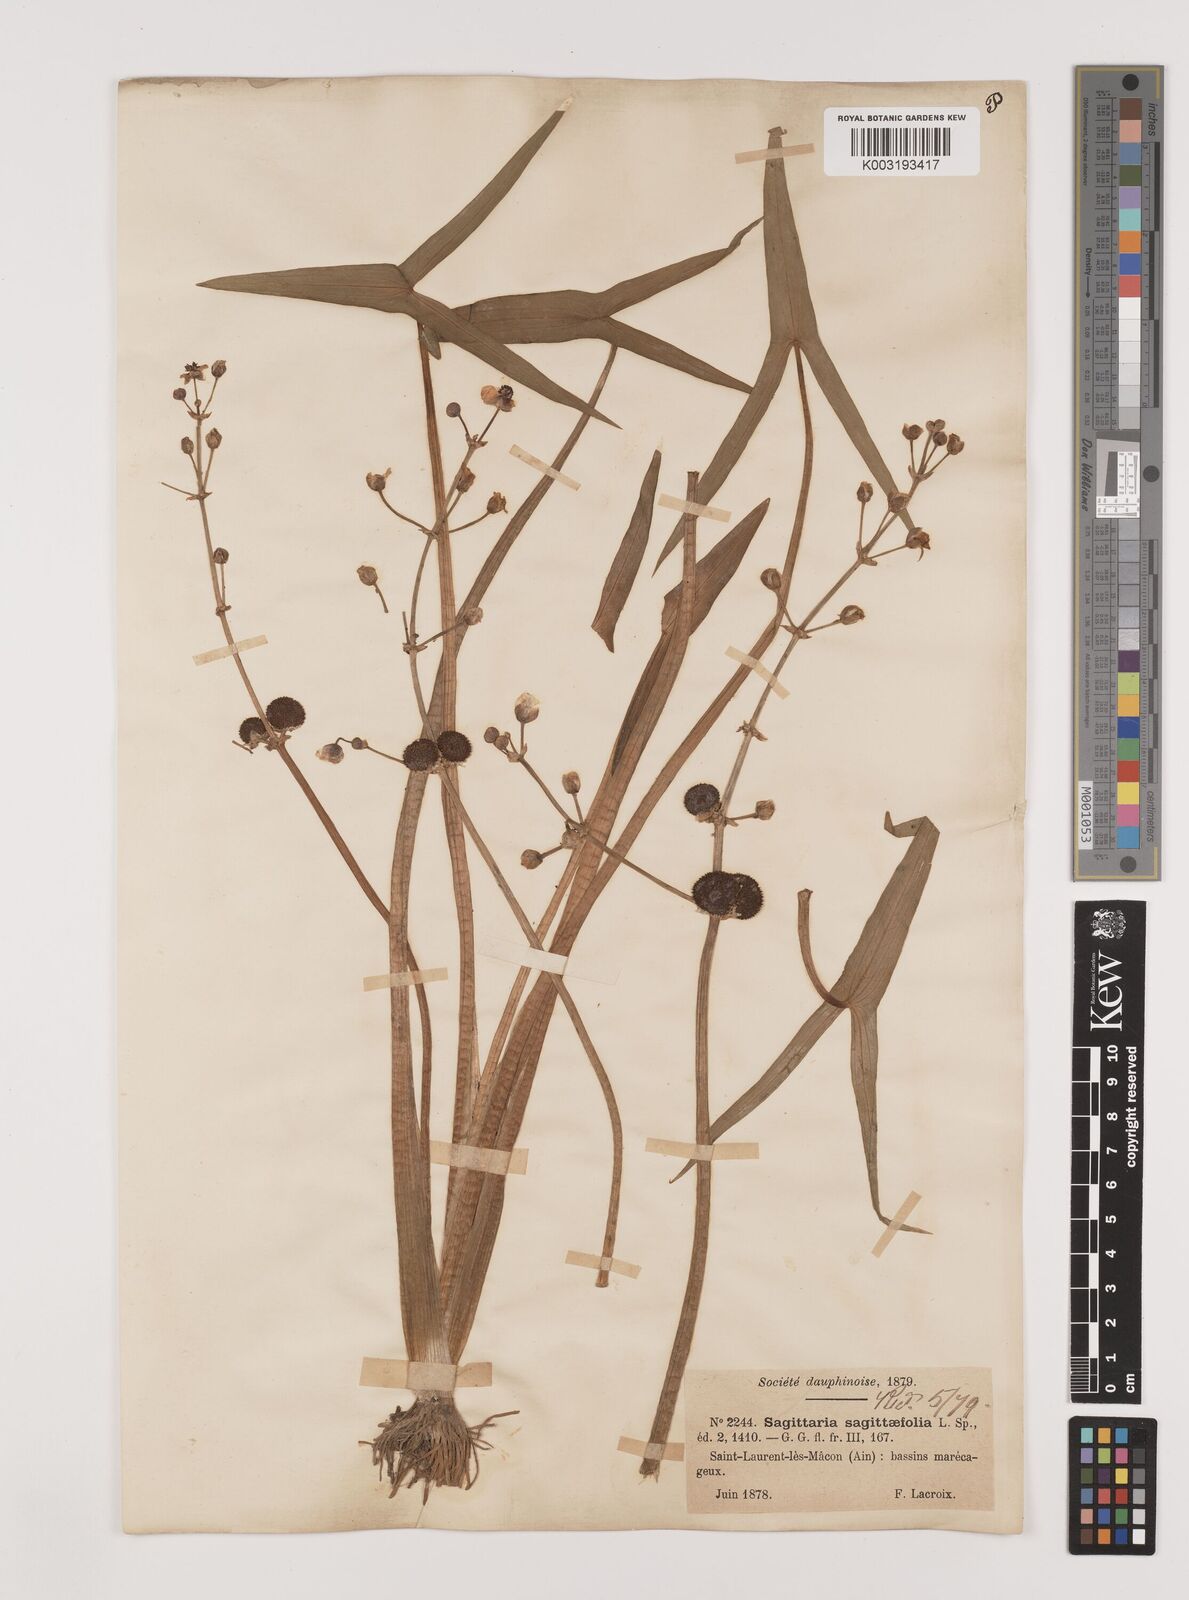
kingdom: Plantae
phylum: Tracheophyta
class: Liliopsida
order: Alismatales
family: Alismataceae
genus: Sagittaria
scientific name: Sagittaria sagittifolia
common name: Arrowhead
